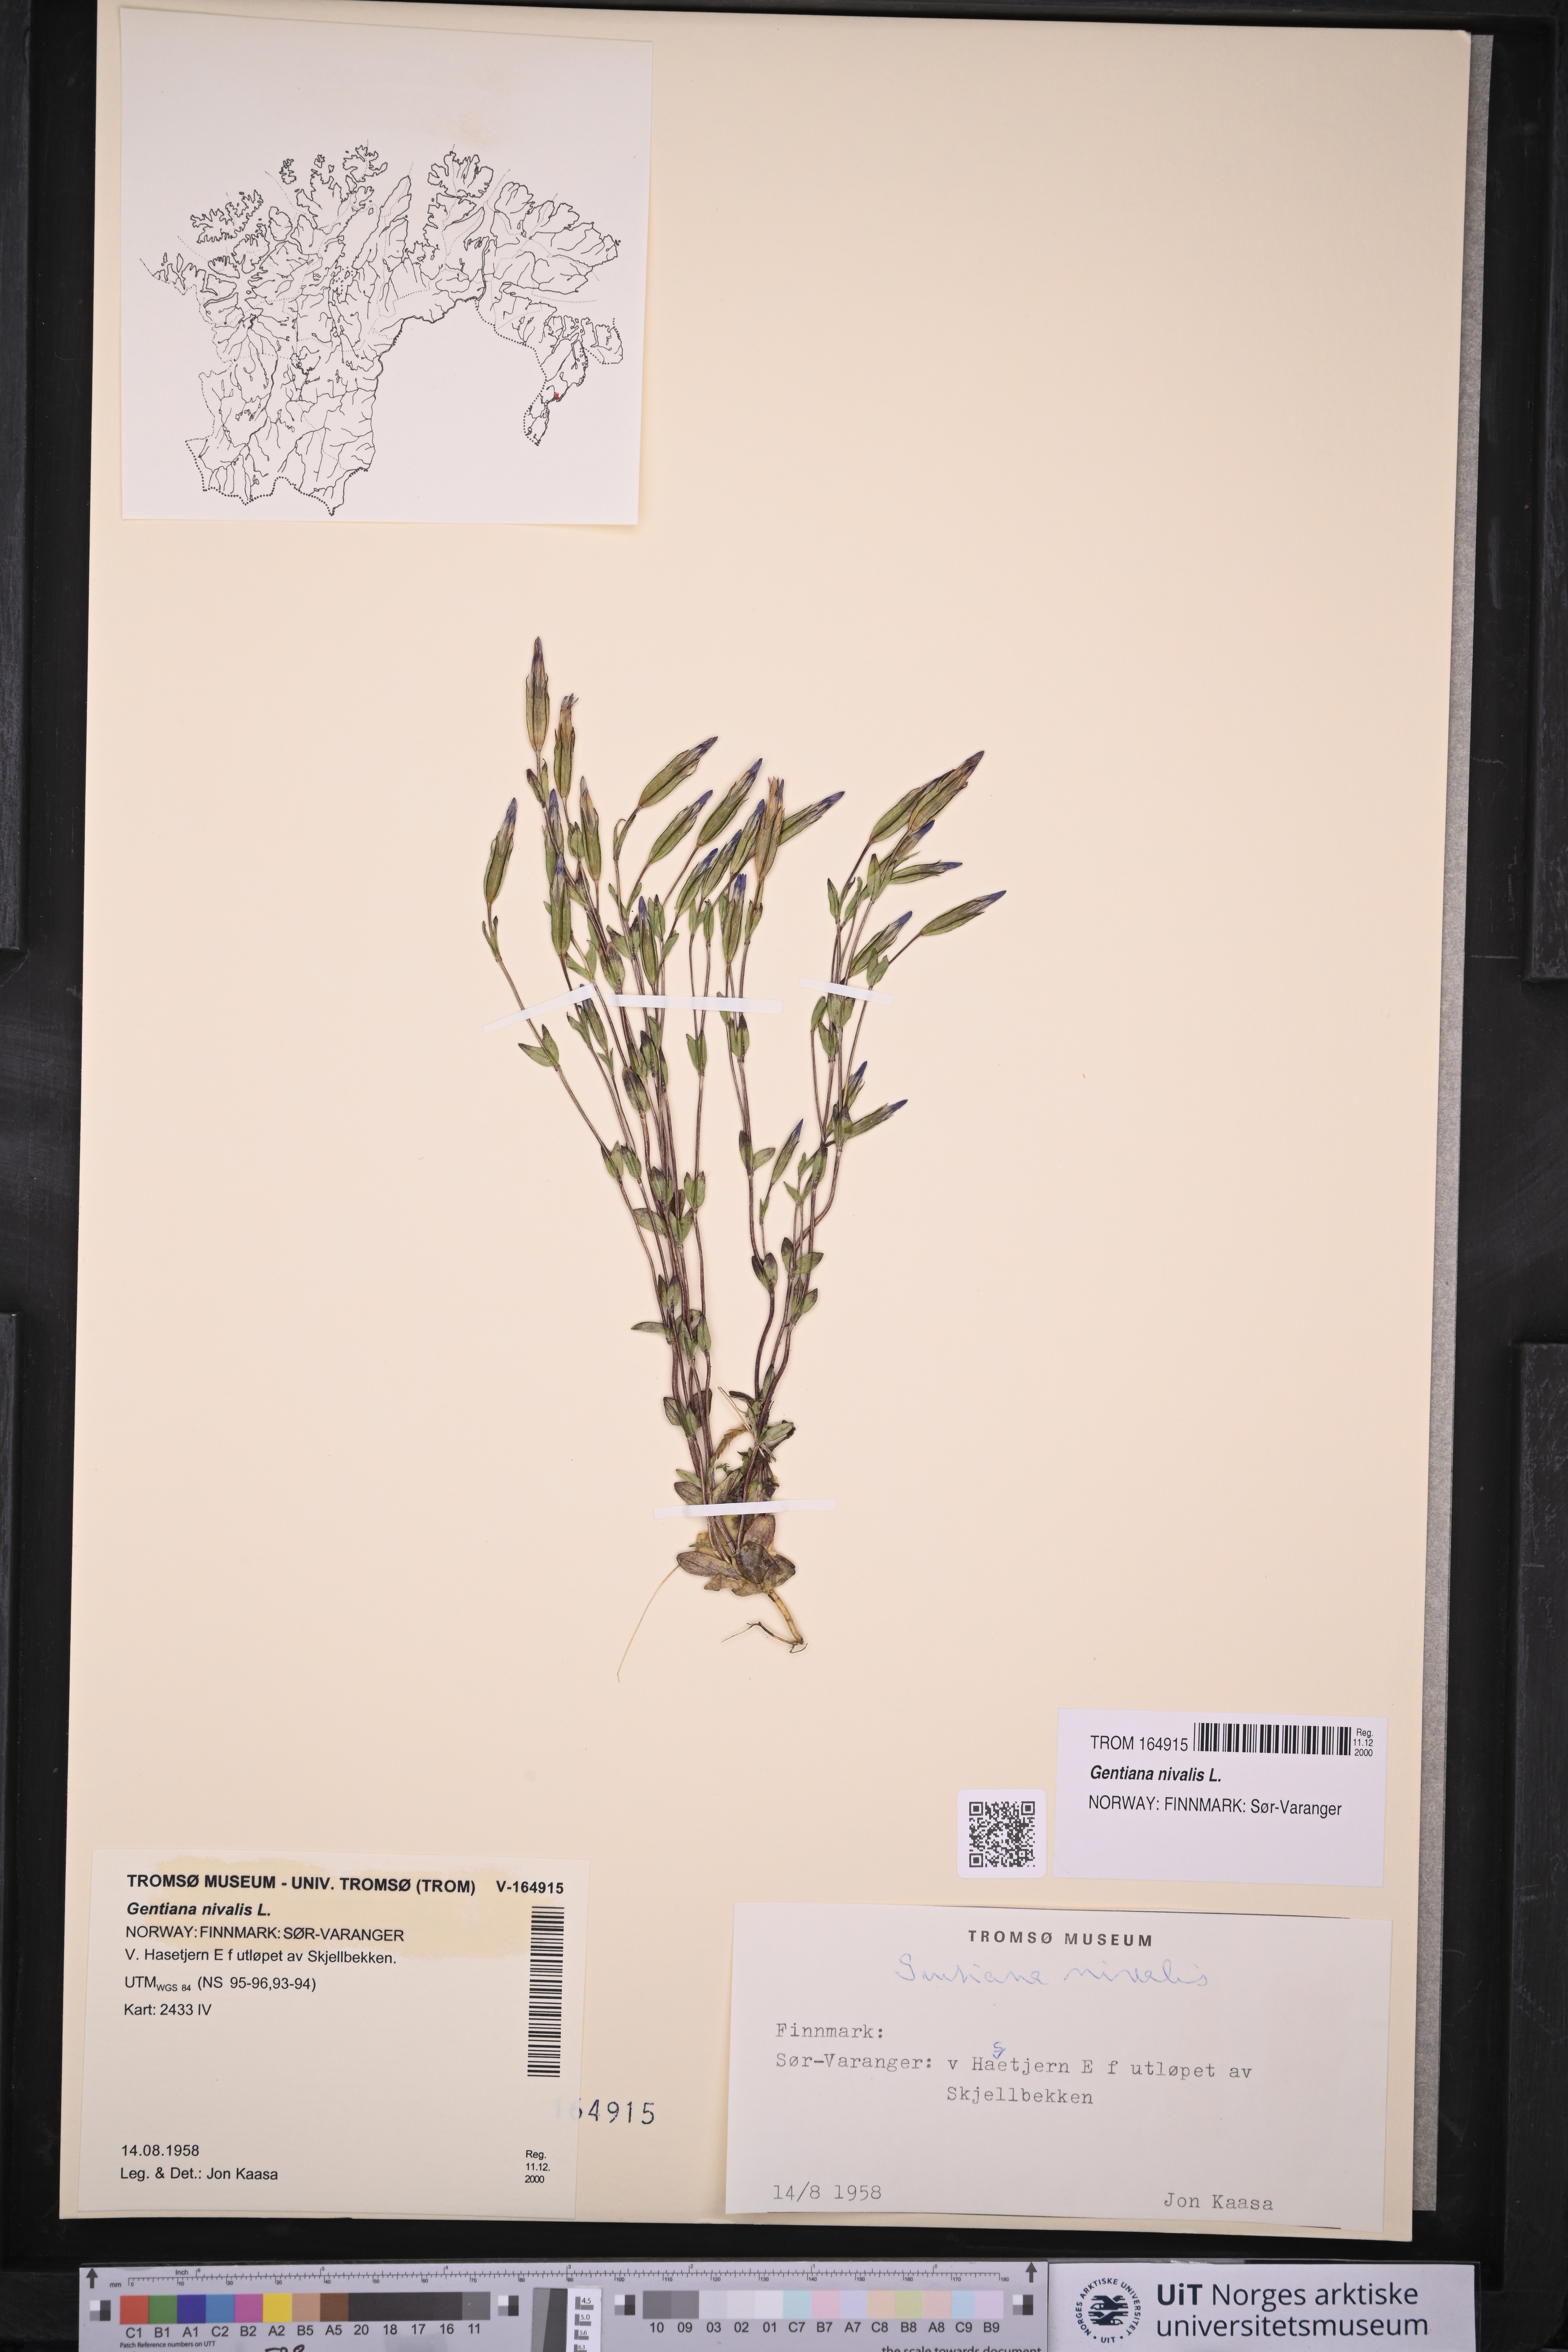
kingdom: Plantae
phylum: Tracheophyta
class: Magnoliopsida
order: Gentianales
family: Gentianaceae
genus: Gentiana
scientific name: Gentiana nivalis
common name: Alpine gentian
